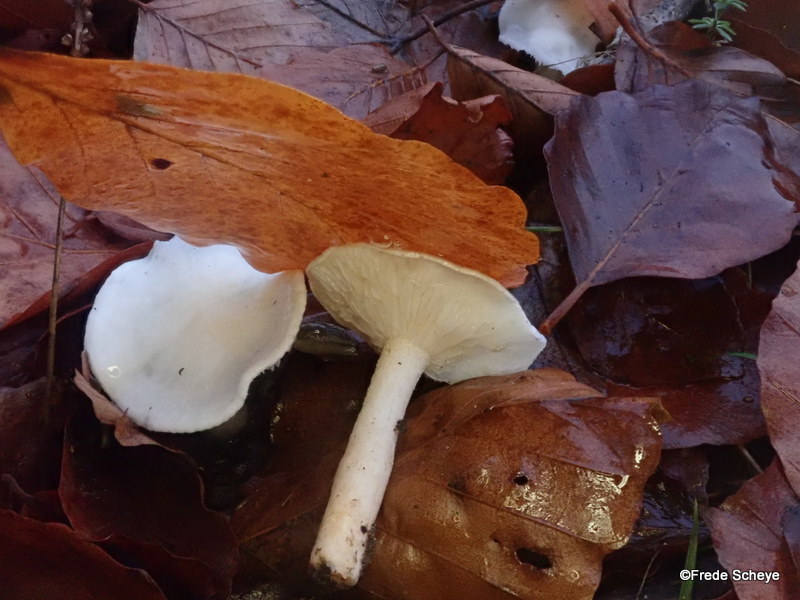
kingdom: Fungi
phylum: Basidiomycota
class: Agaricomycetes
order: Agaricales
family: Hygrophoraceae
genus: Hygrophorus
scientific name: Hygrophorus eburneus
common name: elfenbens-sneglehat
